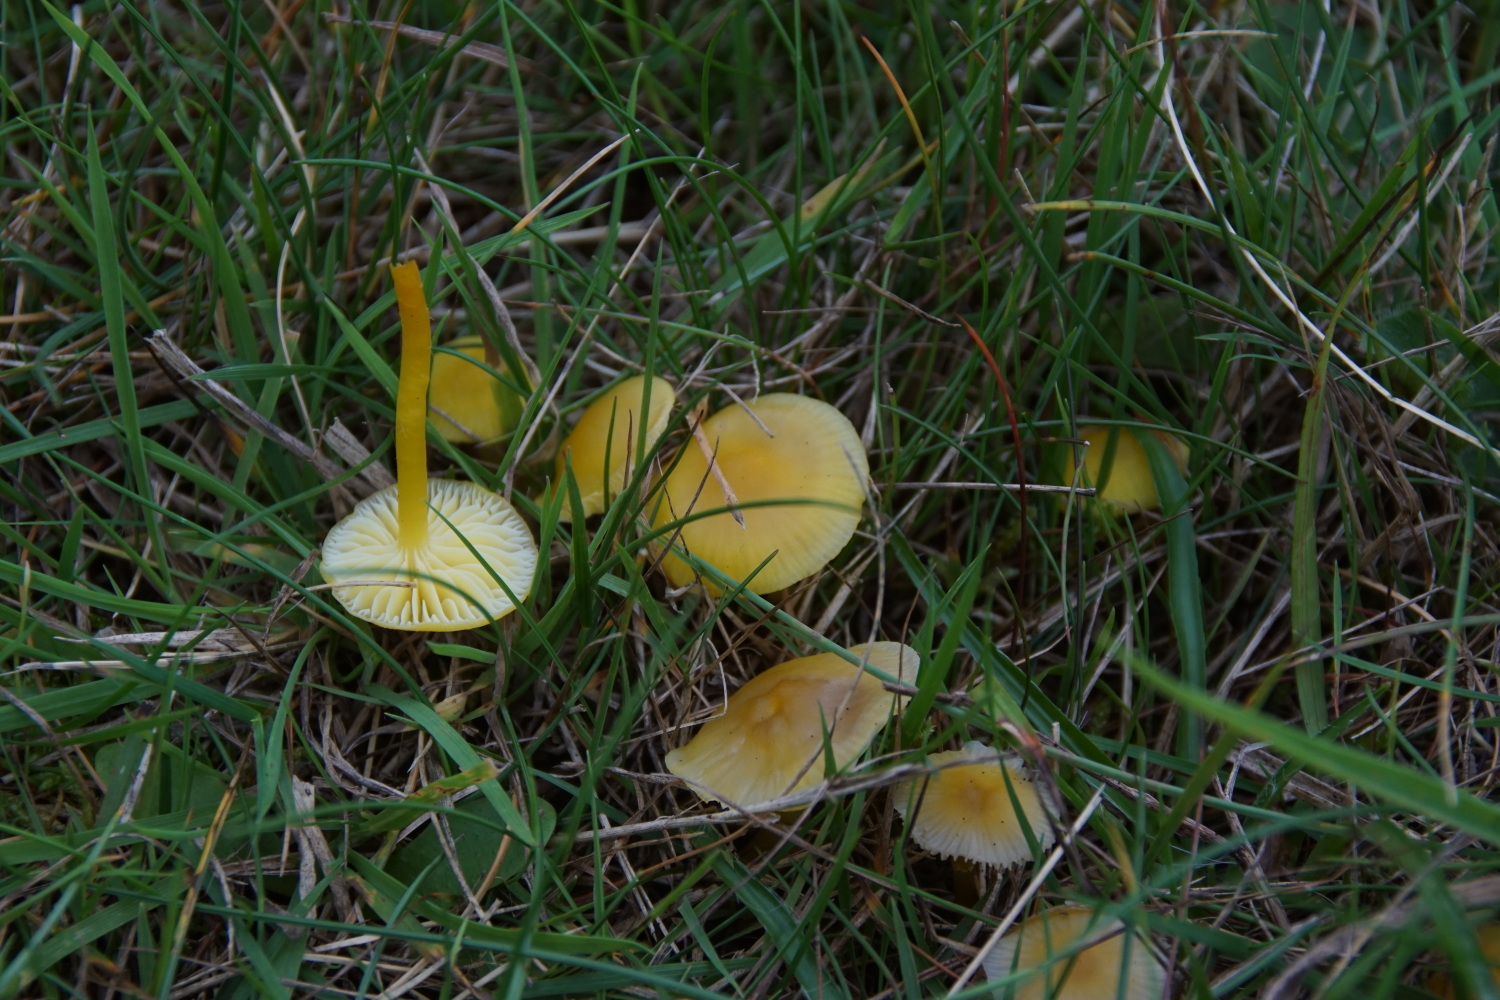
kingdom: Fungi
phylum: Basidiomycota
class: Agaricomycetes
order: Agaricales
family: Hygrophoraceae
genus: Hygrocybe
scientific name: Hygrocybe ceracea
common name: voksgul vokshat
